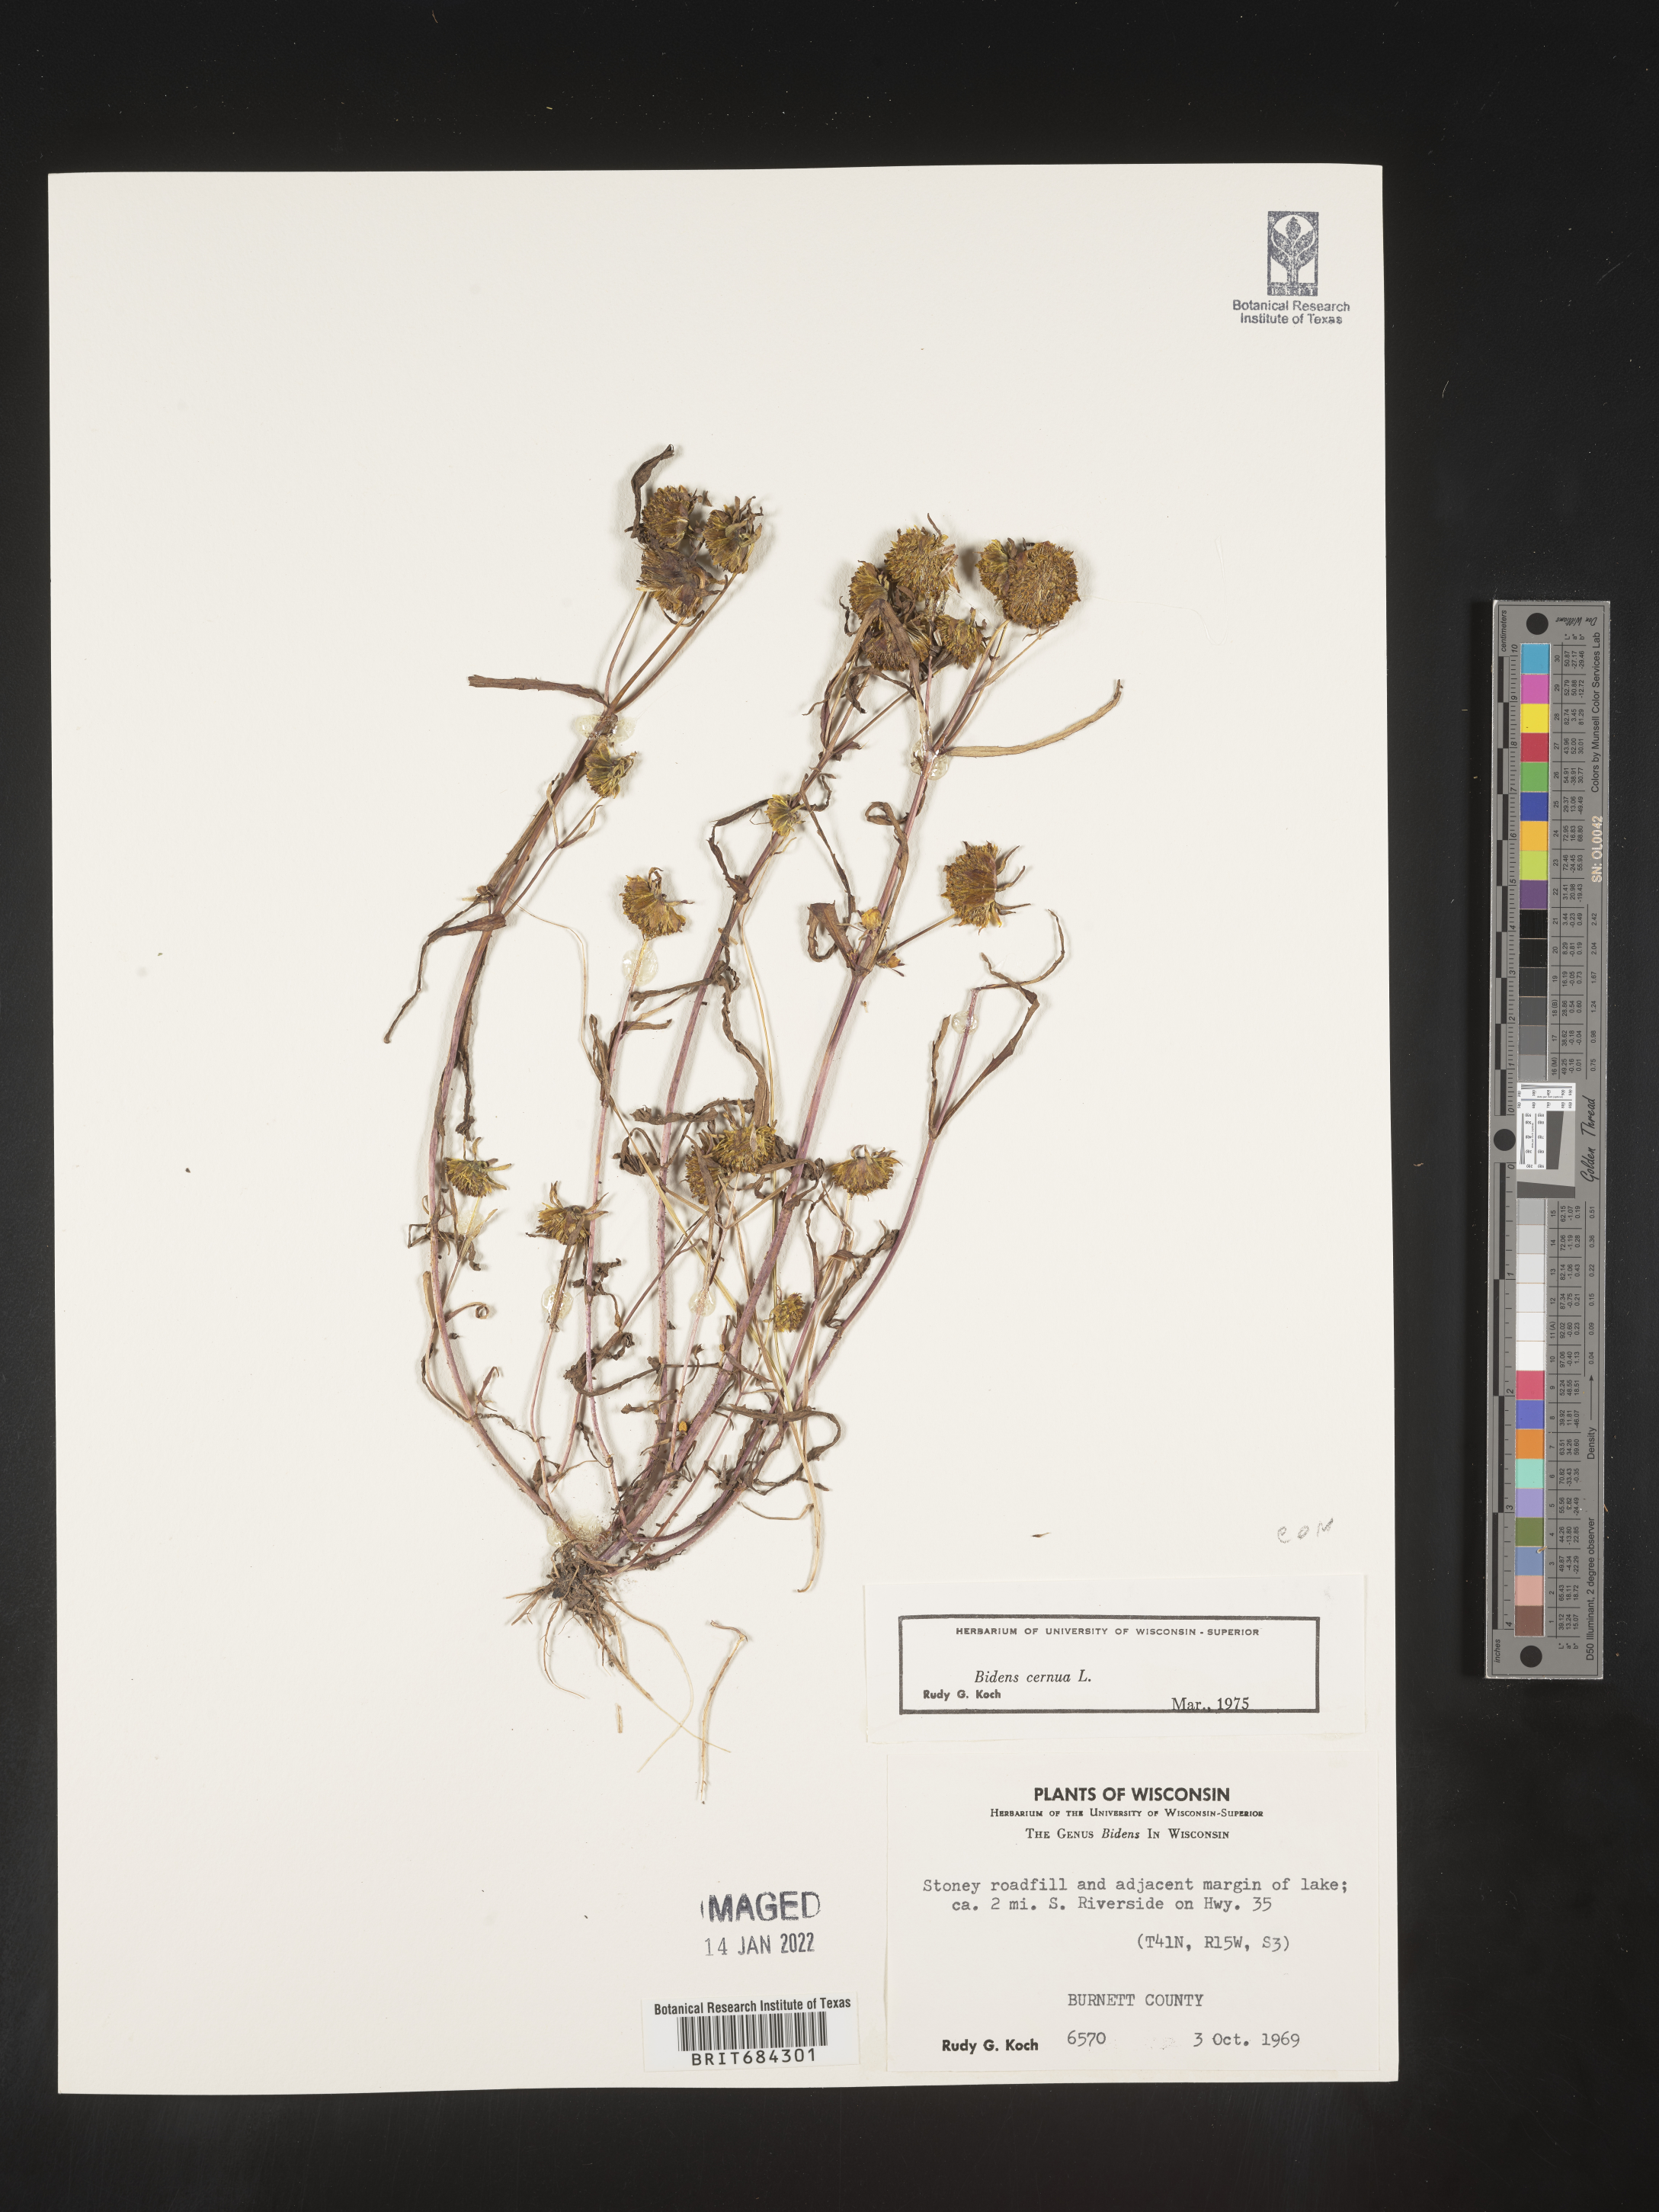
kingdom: Plantae
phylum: Tracheophyta
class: Magnoliopsida
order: Asterales
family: Asteraceae
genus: Bidens
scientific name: Bidens cernua
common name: Nodding bur-marigold
